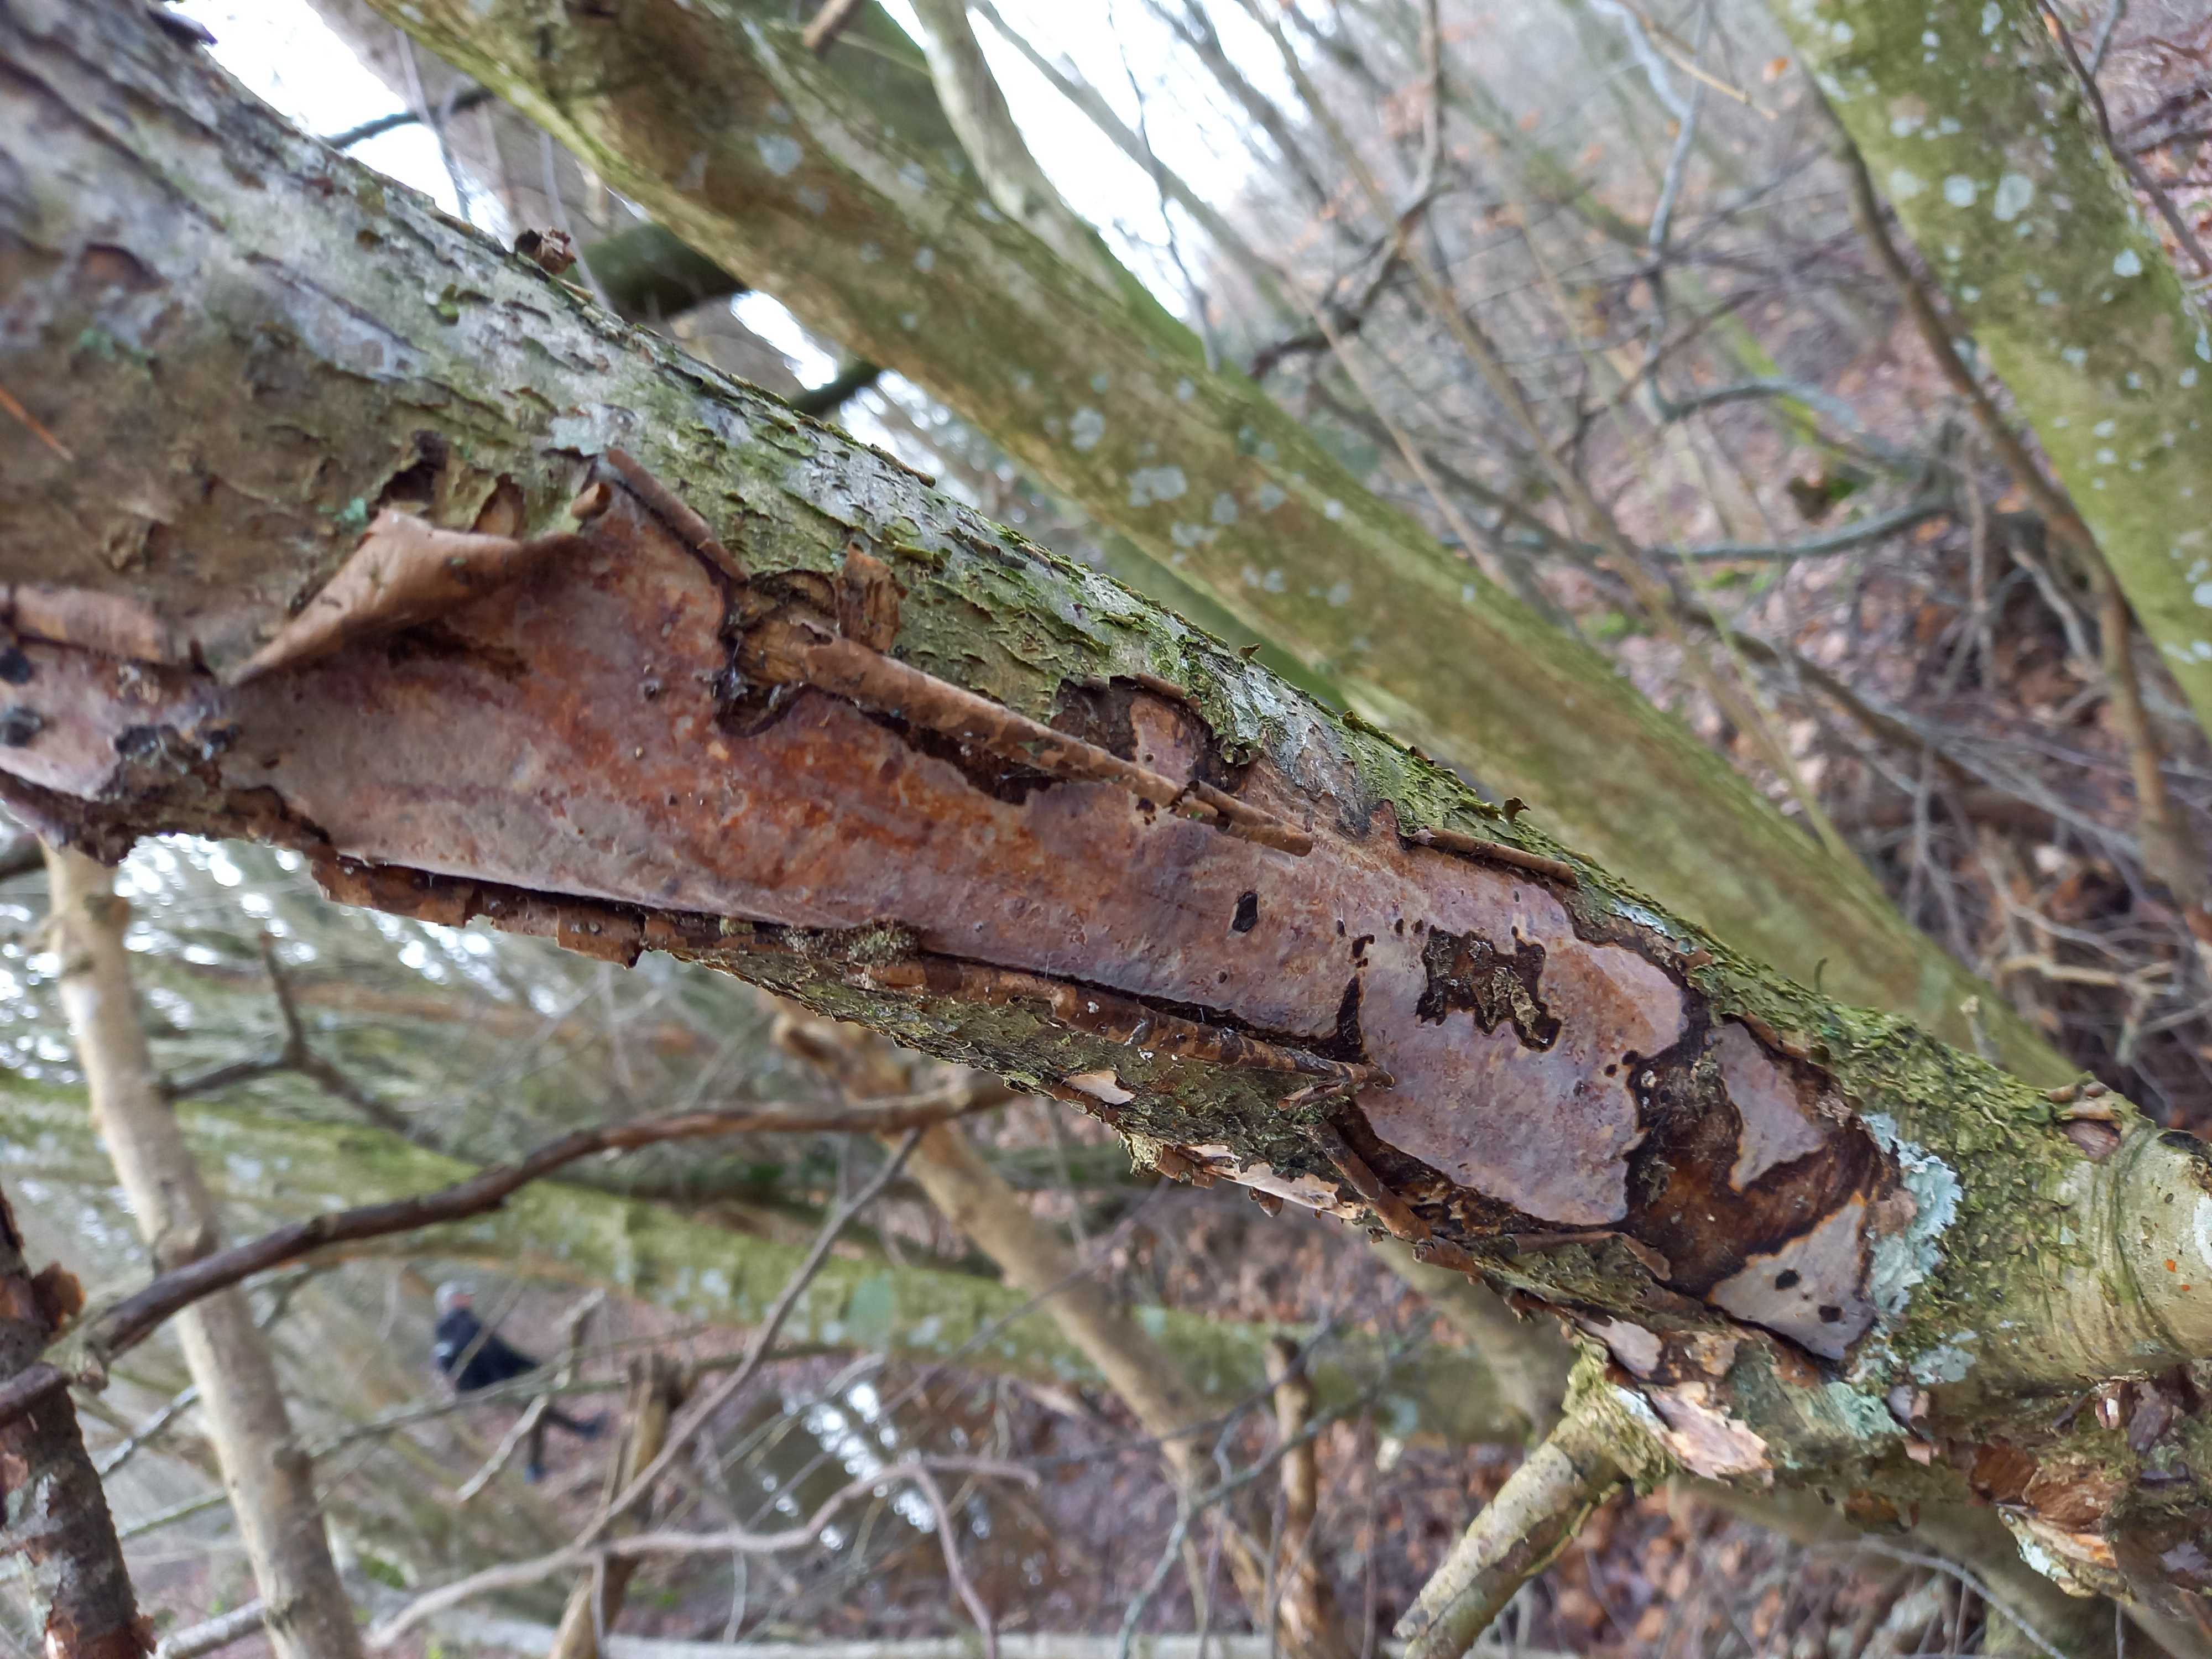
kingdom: Fungi
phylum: Basidiomycota
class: Agaricomycetes
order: Corticiales
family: Vuilleminiaceae
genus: Vuilleminia
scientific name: Vuilleminia coryli
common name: hassel-barksprænger
